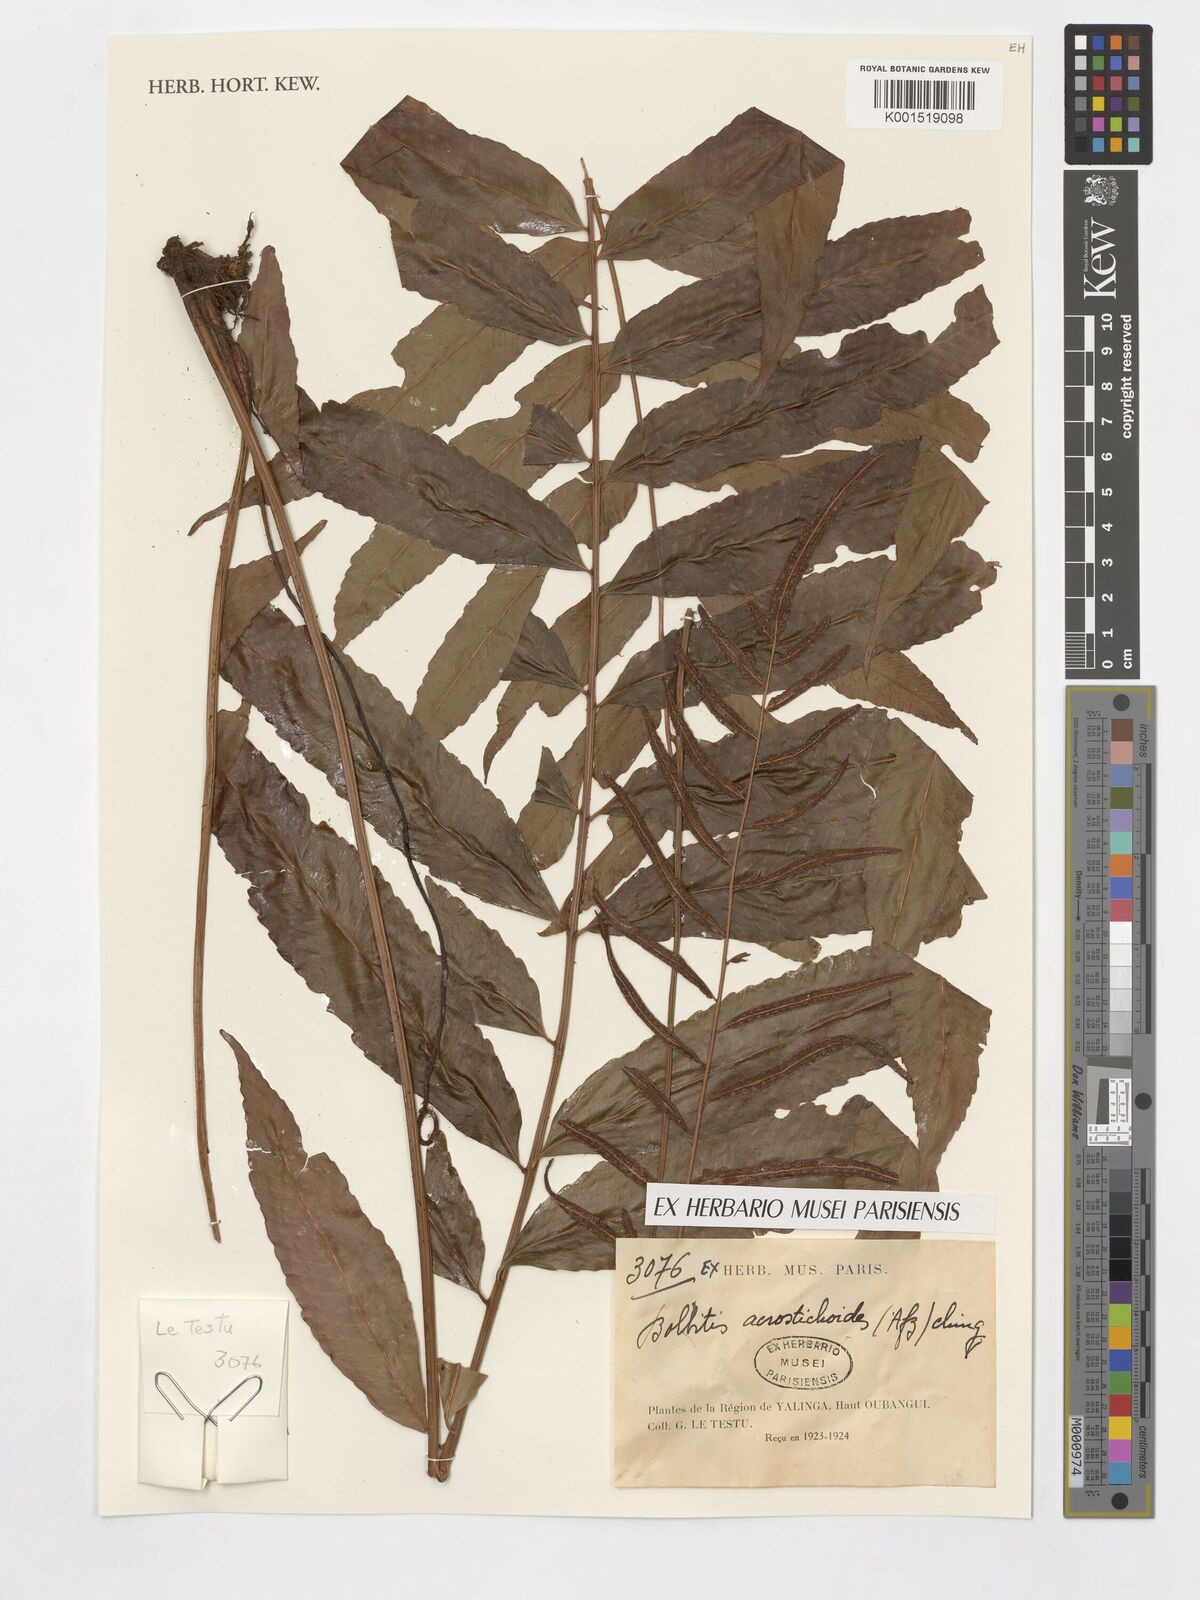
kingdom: Plantae
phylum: Tracheophyta
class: Polypodiopsida
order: Polypodiales
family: Dryopteridaceae
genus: Bolbitis
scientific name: Bolbitis acrostichoides
